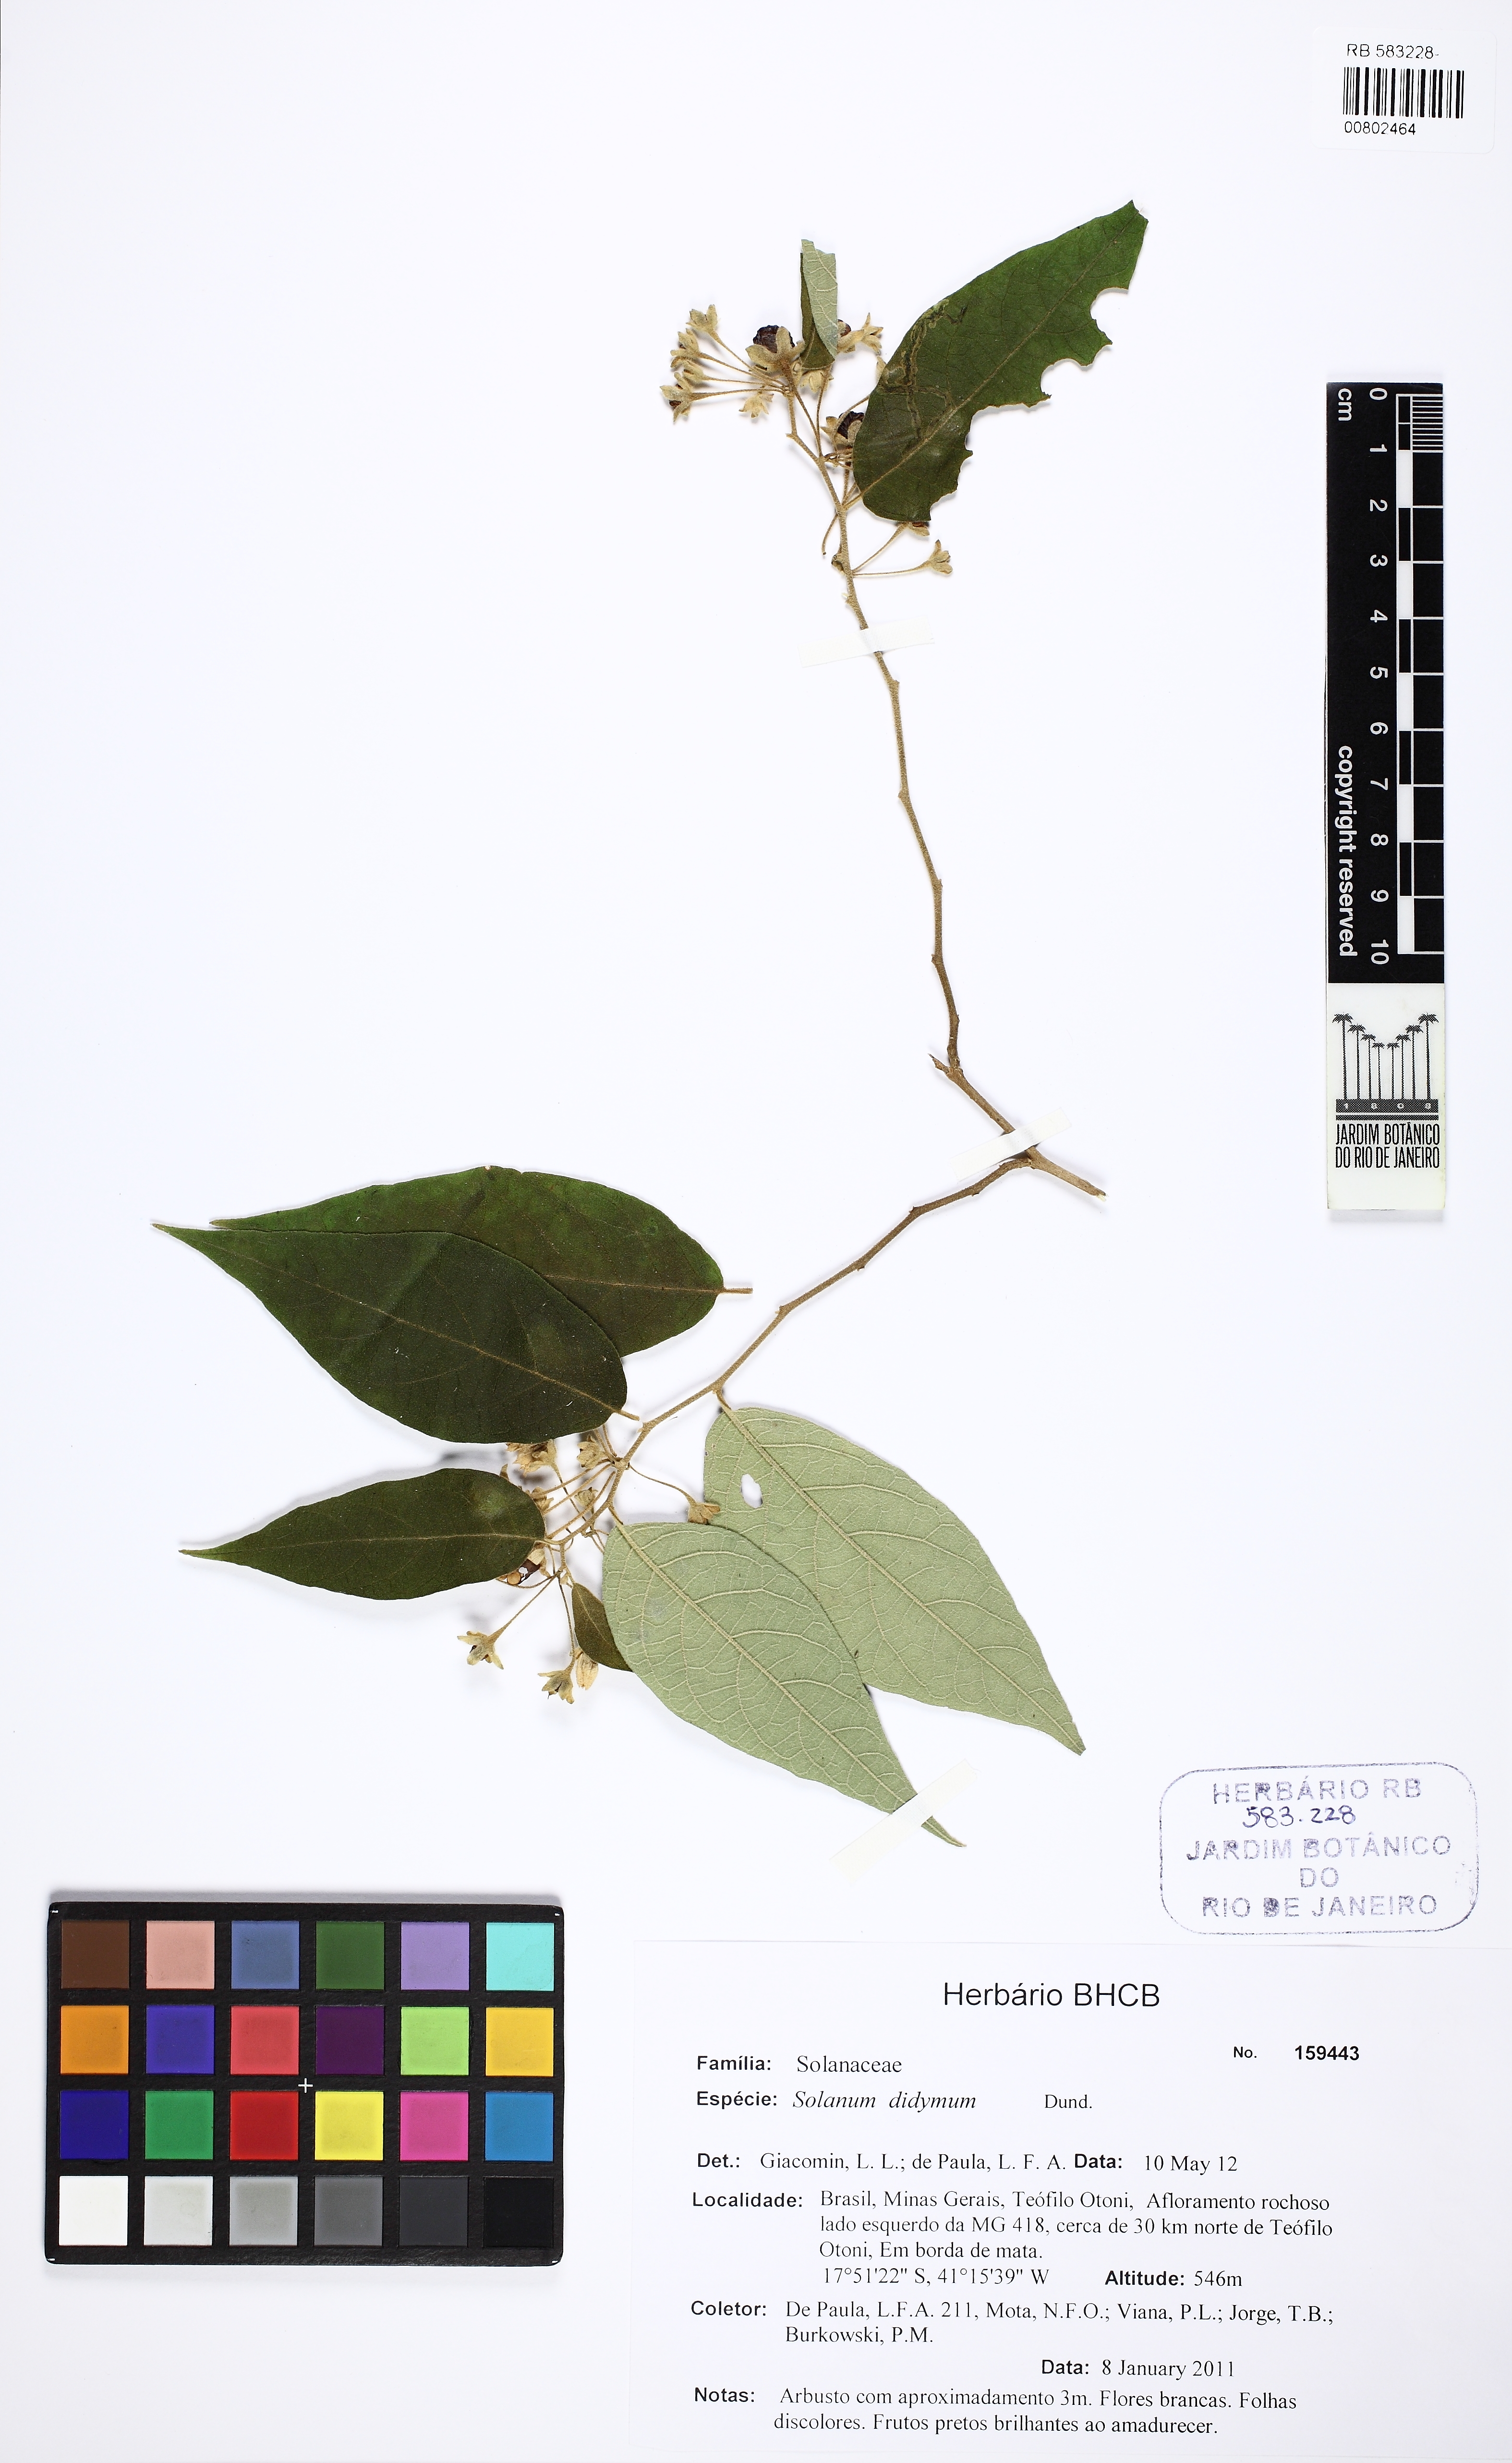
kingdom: Plantae
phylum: Tracheophyta
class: Magnoliopsida
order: Solanales
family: Solanaceae
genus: Solanum
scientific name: Solanum didymum
